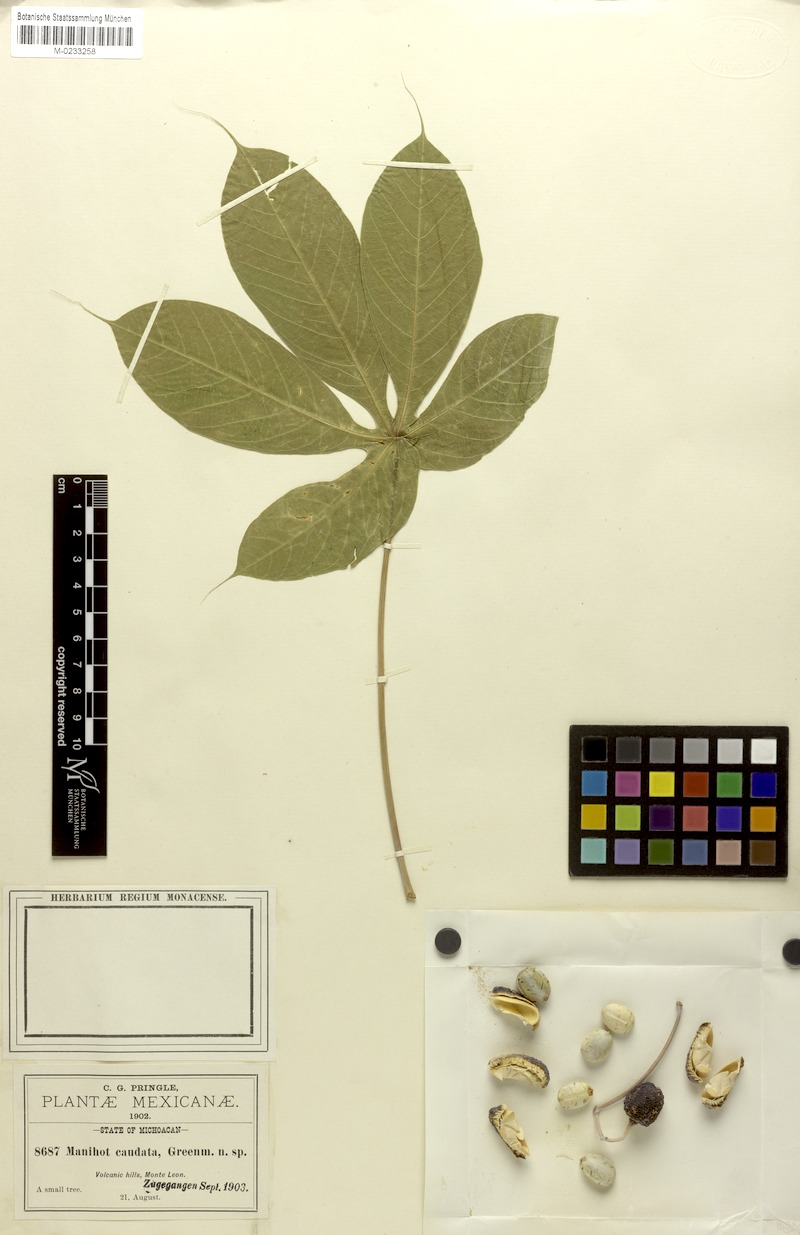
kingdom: Plantae
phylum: Tracheophyta
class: Magnoliopsida
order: Malpighiales
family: Euphorbiaceae
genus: Manihot
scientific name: Manihot caudata
